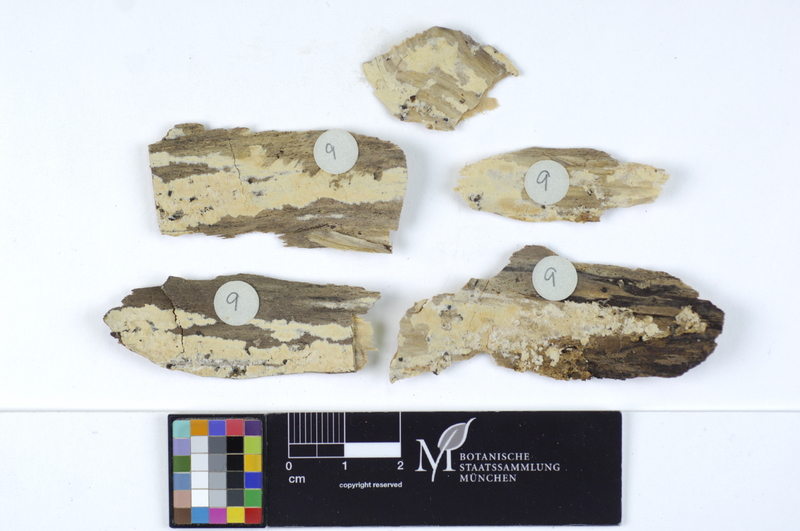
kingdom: Fungi
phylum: Basidiomycota
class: Agaricomycetes
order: Agaricales
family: Physalacriaceae
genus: Cylindrobasidium
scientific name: Cylindrobasidium evolvens
